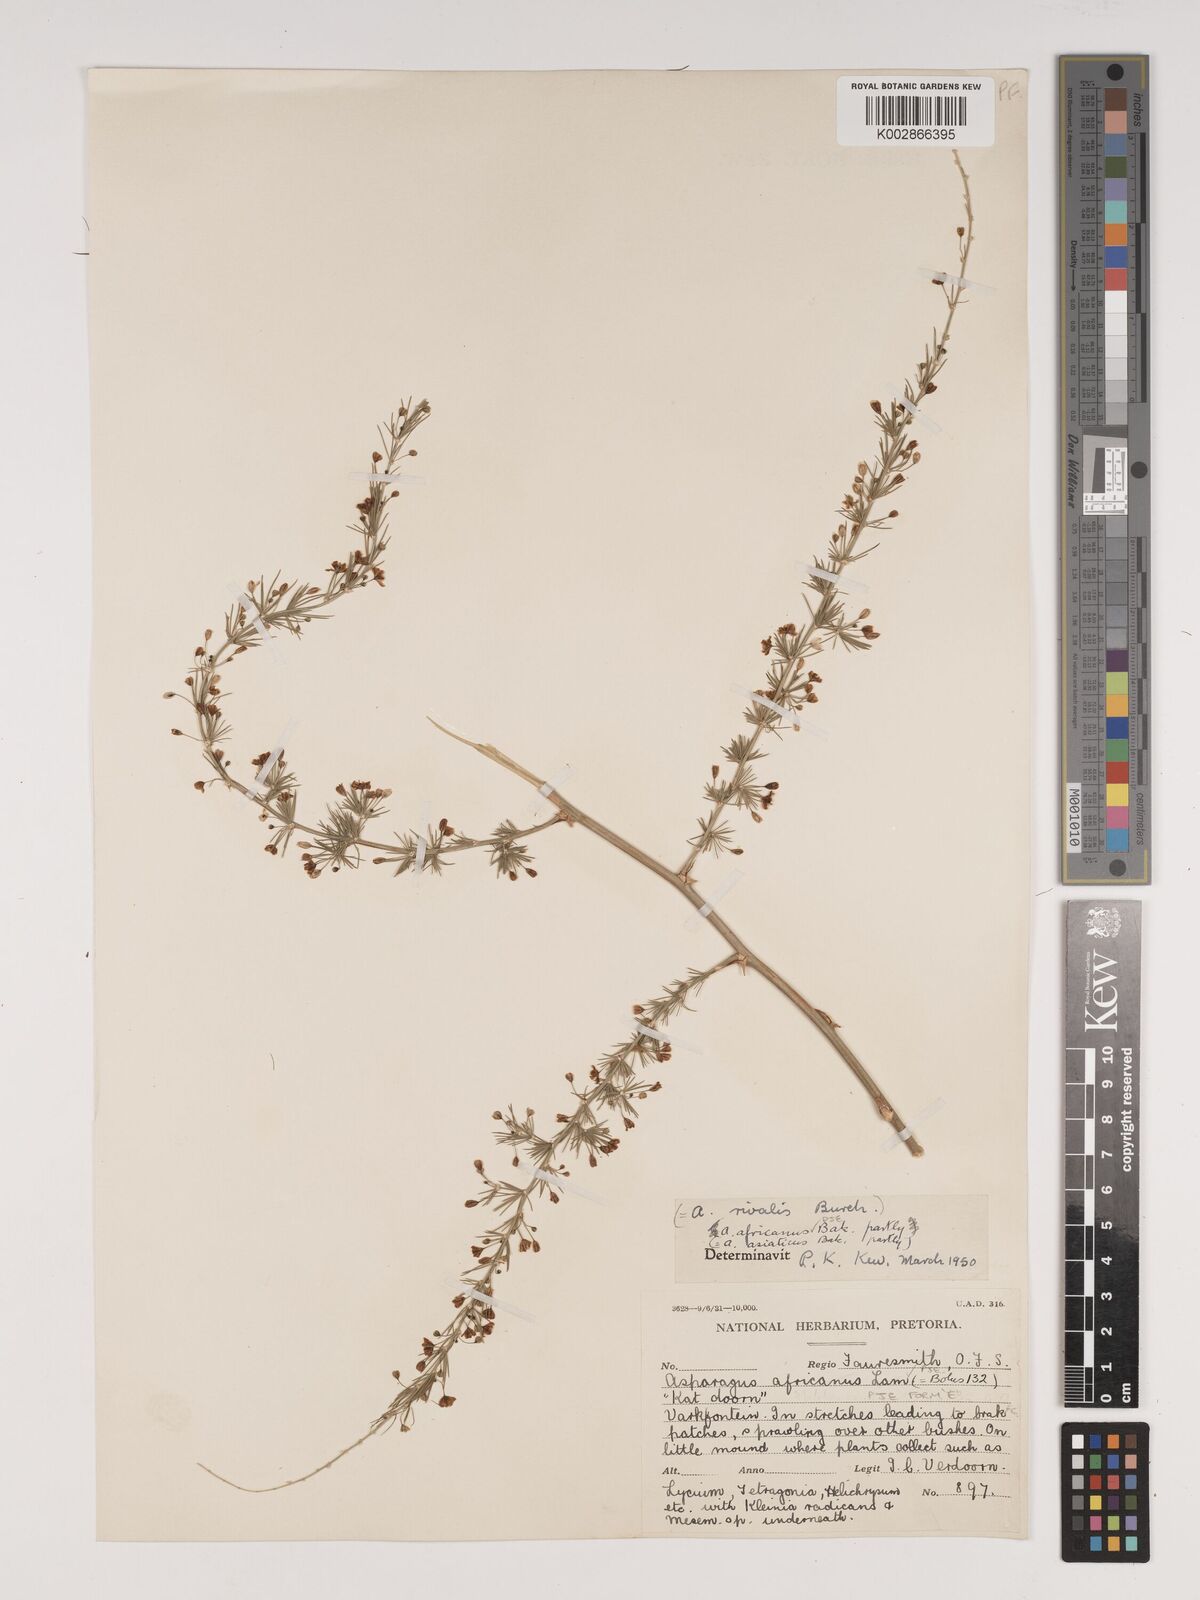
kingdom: Plantae
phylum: Tracheophyta
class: Liliopsida
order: Asparagales
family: Asparagaceae
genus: Asparagus
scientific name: Asparagus africanus
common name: Asparagus-fern
